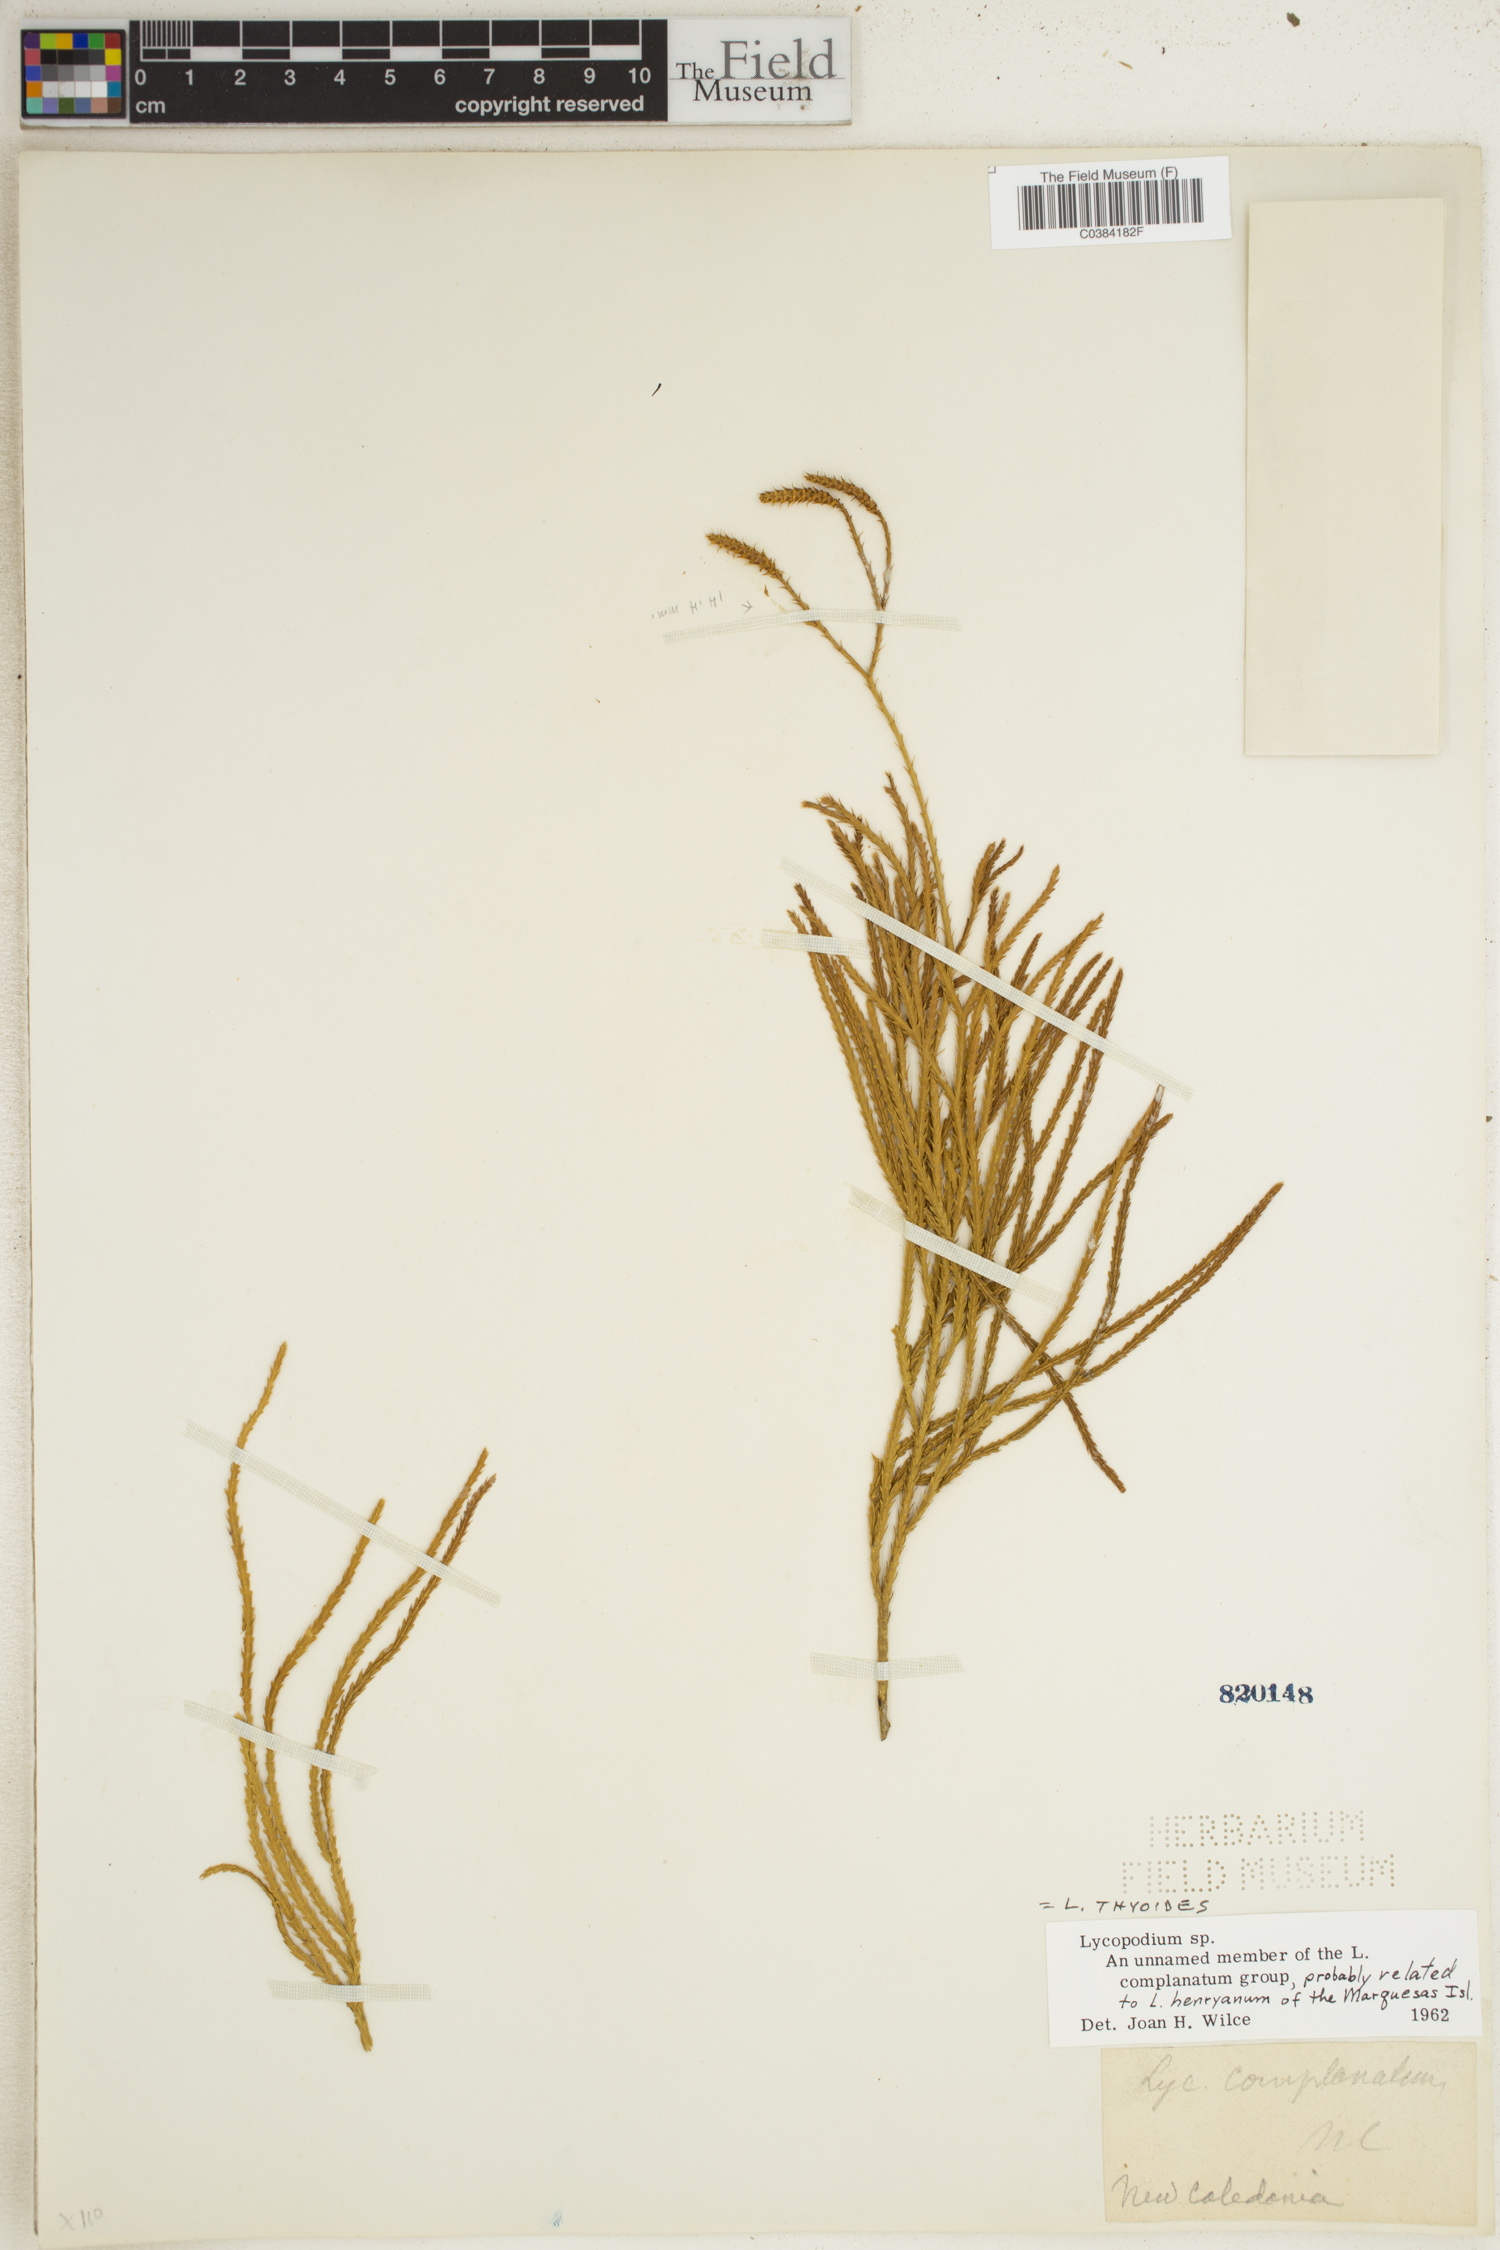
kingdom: Plantae
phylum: Tracheophyta
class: Lycopodiopsida
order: Lycopodiales
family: Lycopodiaceae
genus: Diphasiastrum
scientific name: Diphasiastrum thyoides
